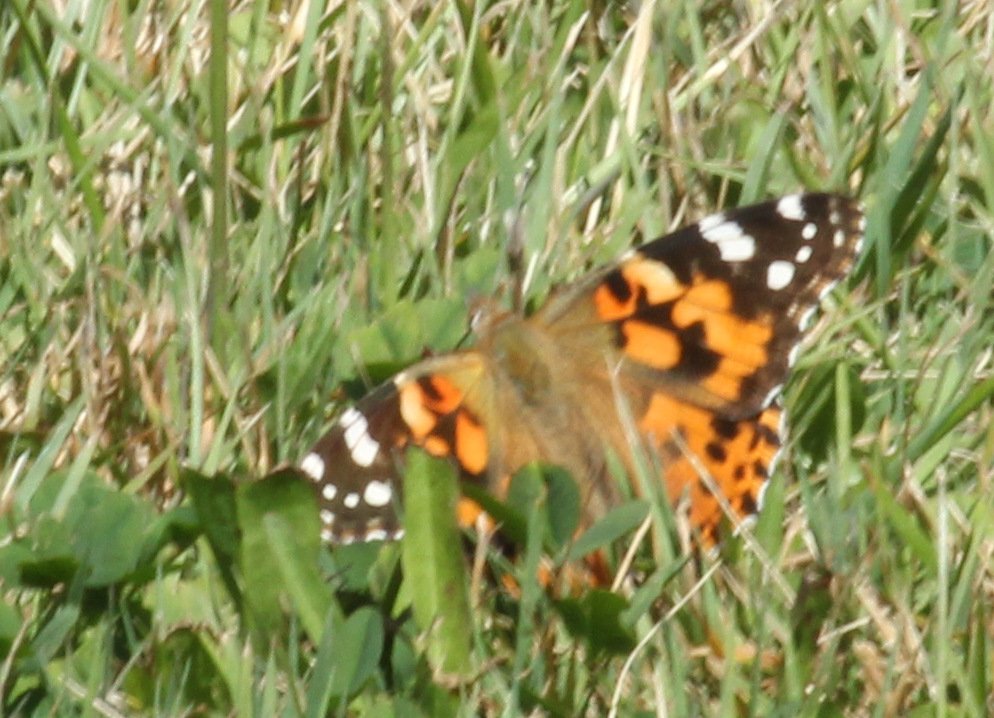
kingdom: Animalia
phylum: Arthropoda
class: Insecta
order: Lepidoptera
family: Nymphalidae
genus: Vanessa
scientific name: Vanessa cardui
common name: Painted Lady
